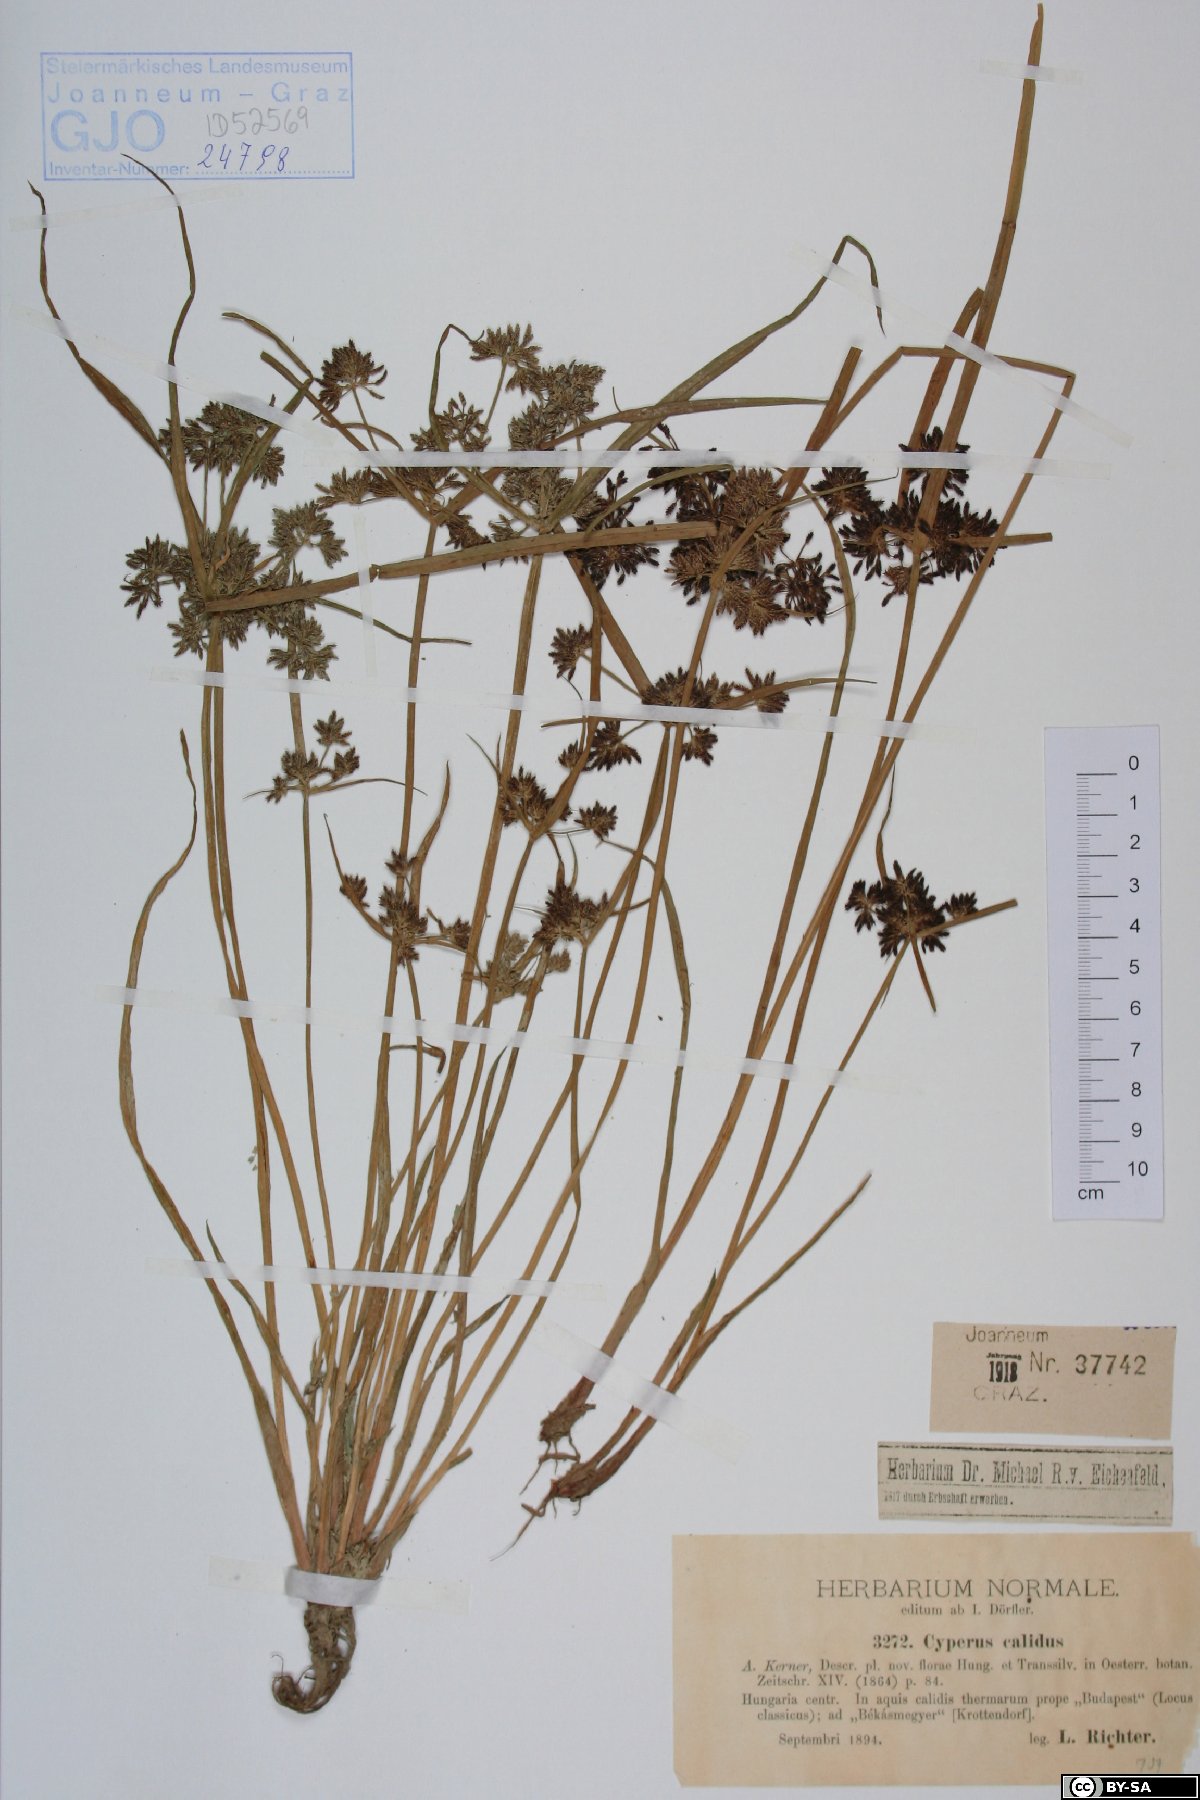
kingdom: Plantae
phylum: Tracheophyta
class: Liliopsida
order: Poales
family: Cyperaceae
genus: Cyperus
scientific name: Cyperus fuscus
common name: Brown galingale
